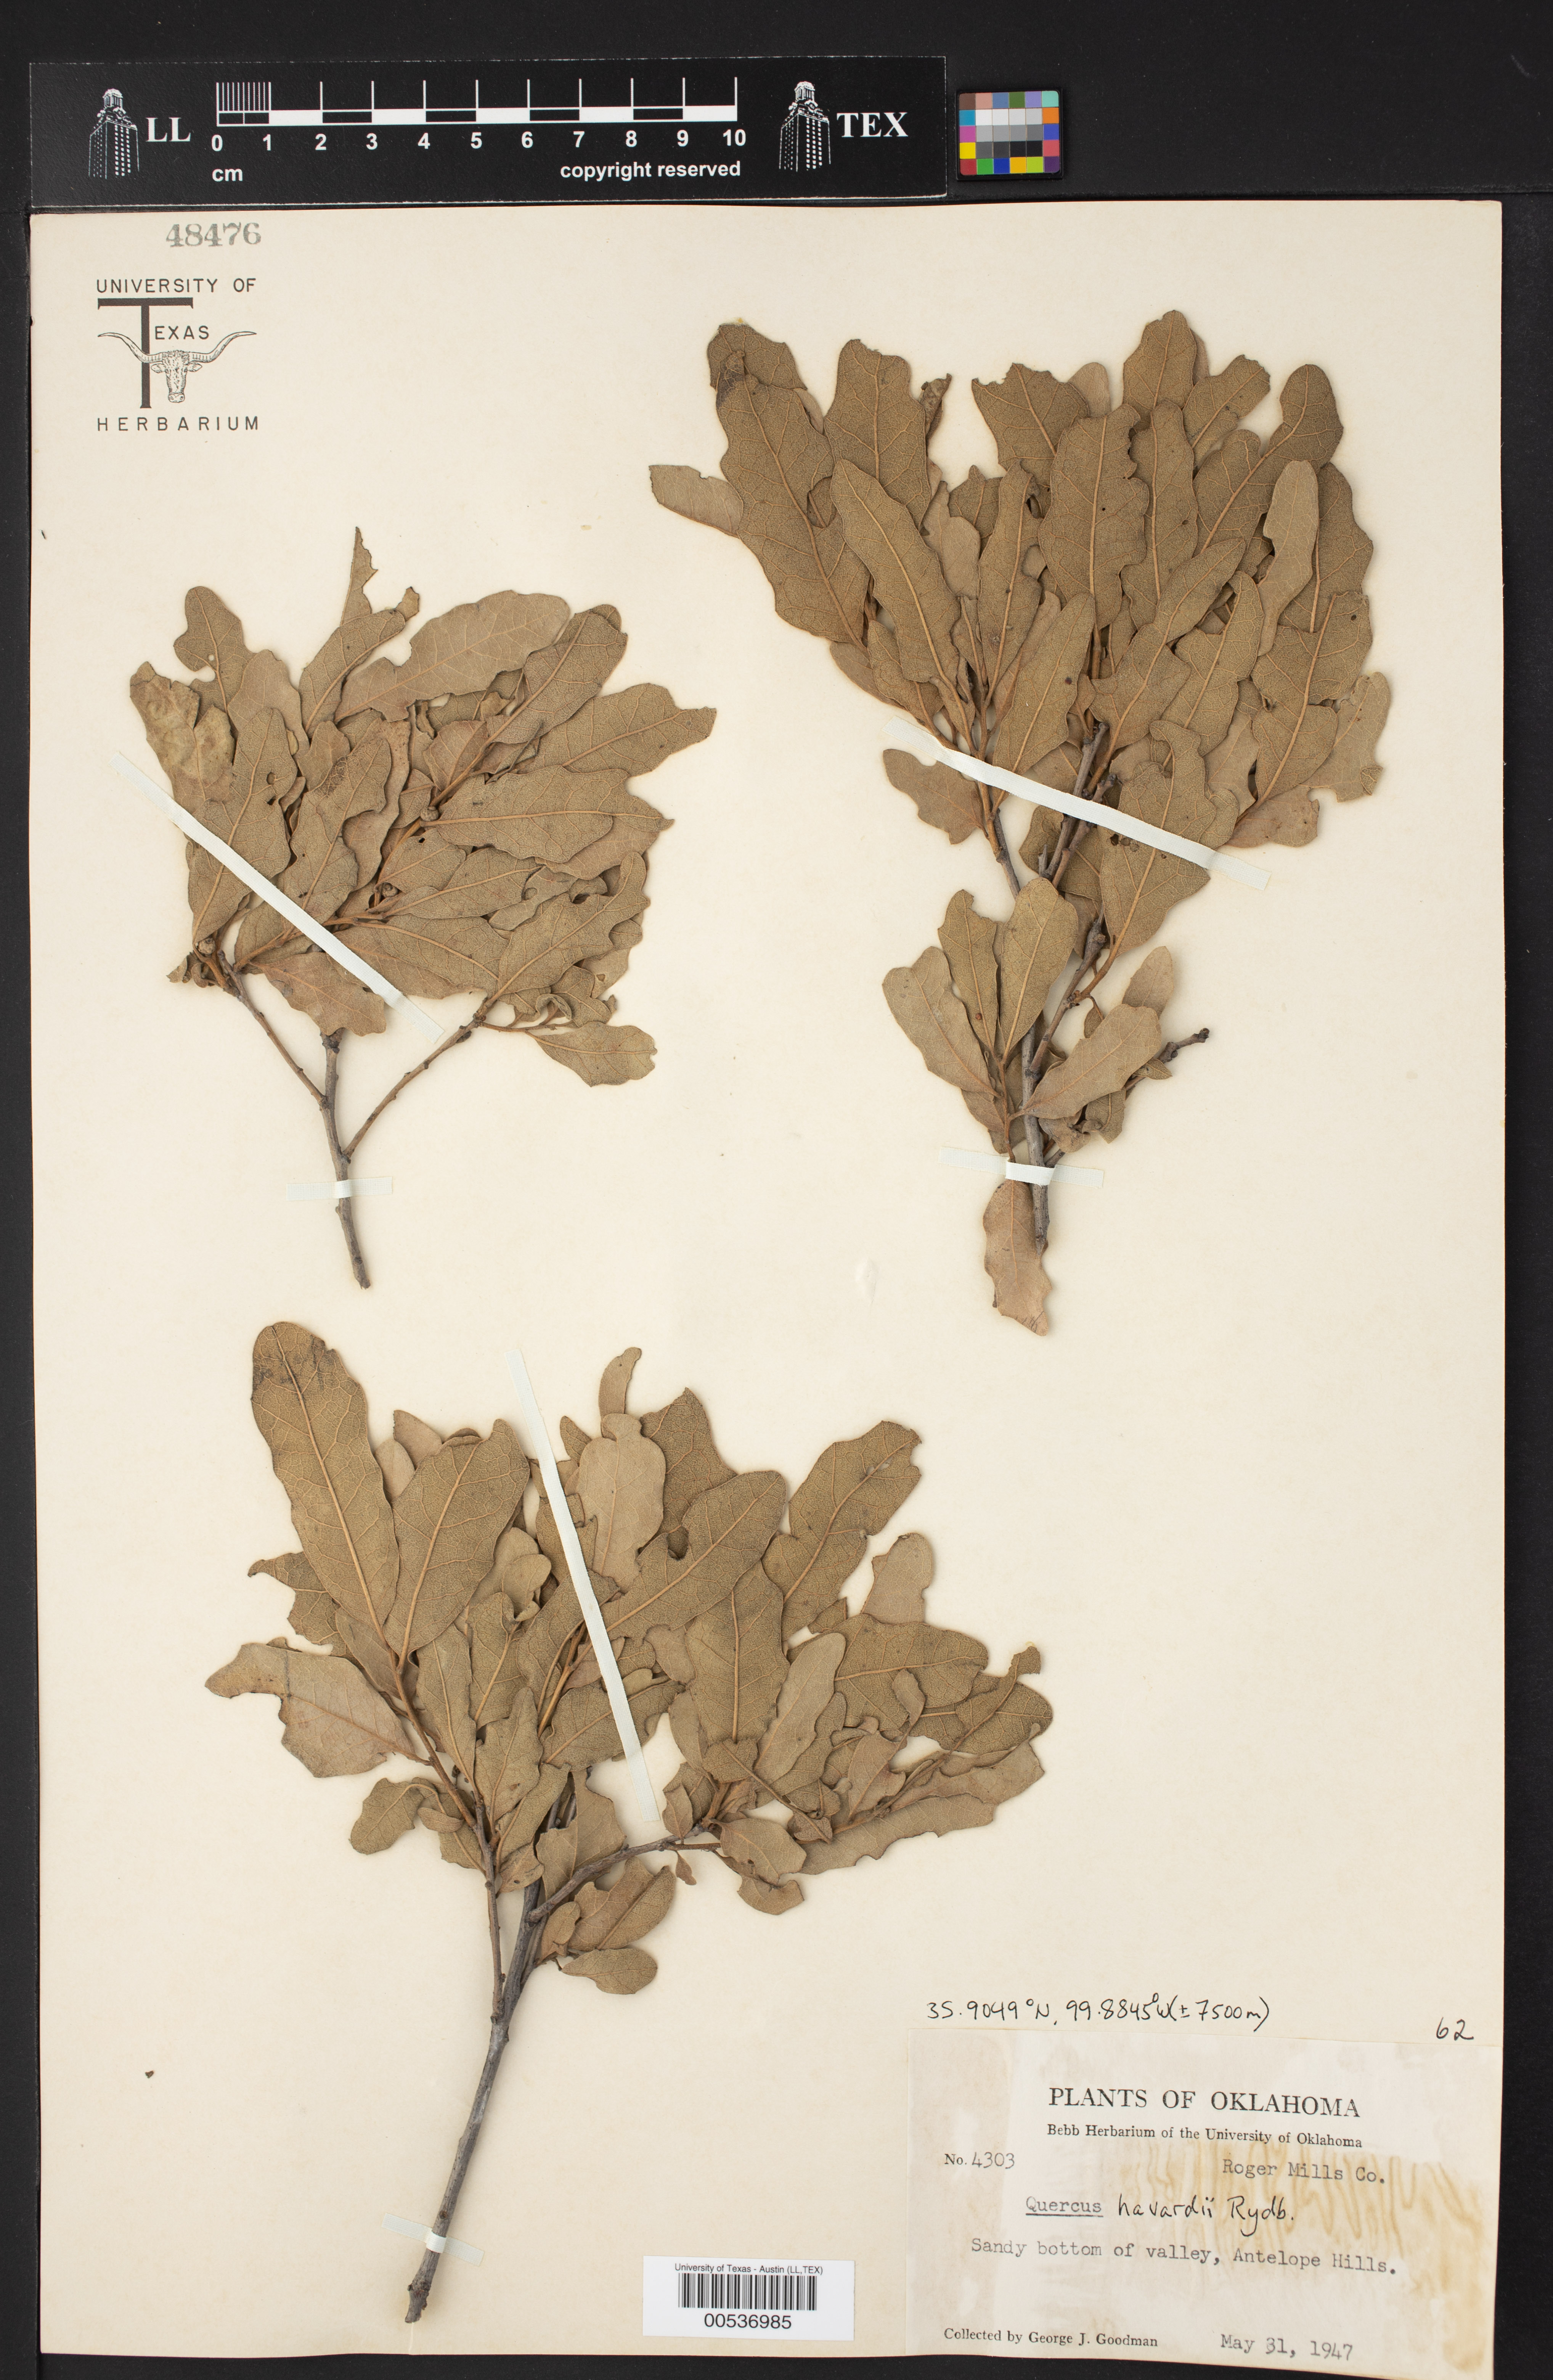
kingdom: Plantae
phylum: Tracheophyta
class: Magnoliopsida
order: Fagales
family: Fagaceae
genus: Quercus
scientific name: Quercus havardii
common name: Shinnery oak
